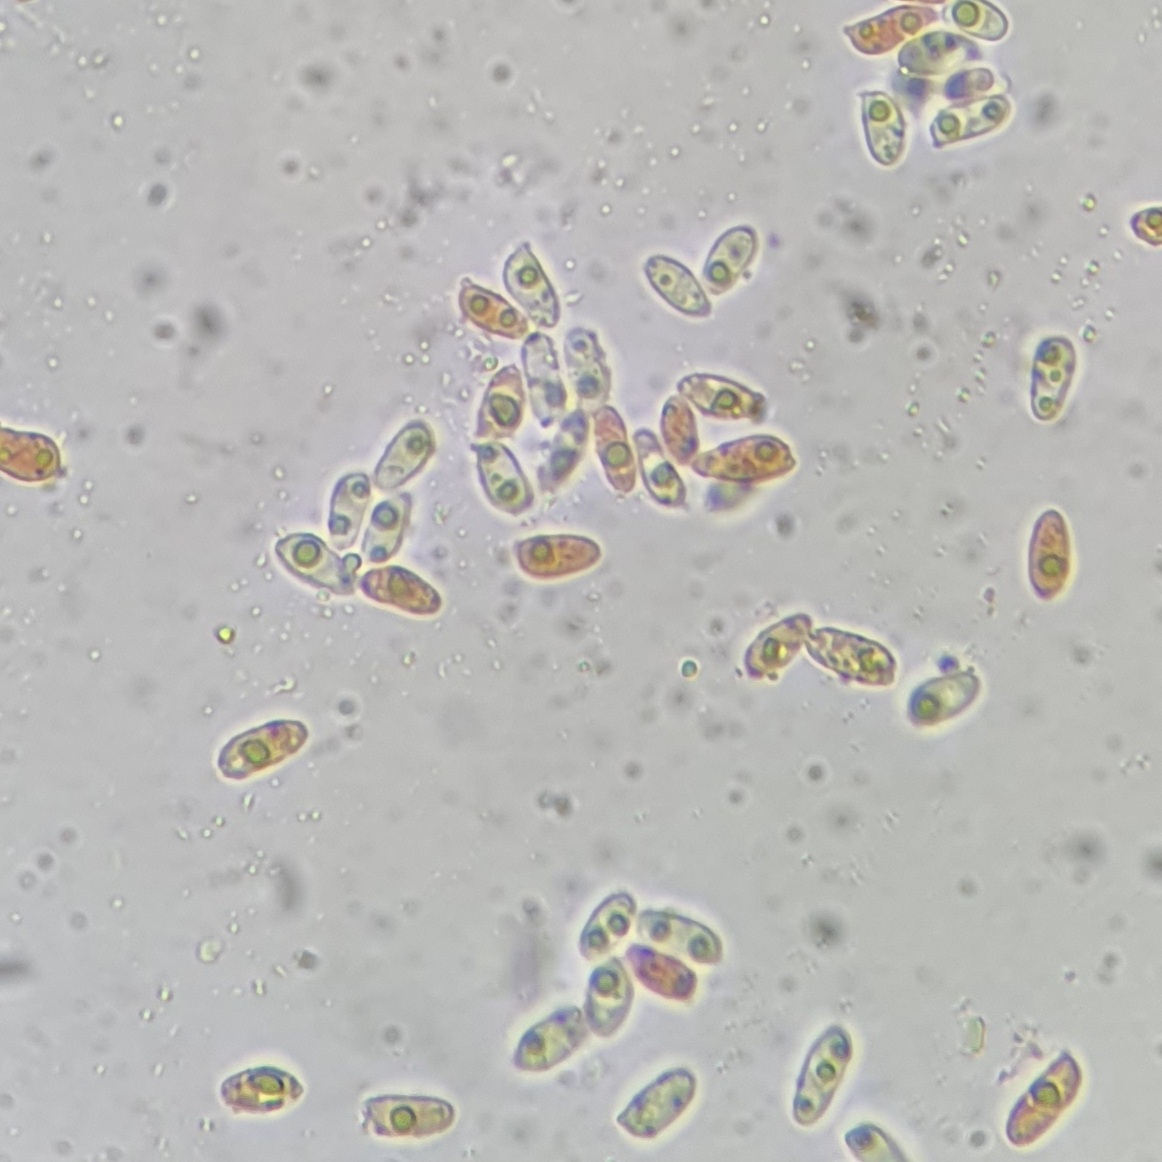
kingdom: Fungi
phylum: Basidiomycota
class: Agaricomycetes
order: Agaricales
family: Tricholomataceae
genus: Clitocybe
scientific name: Clitocybe agrestis
